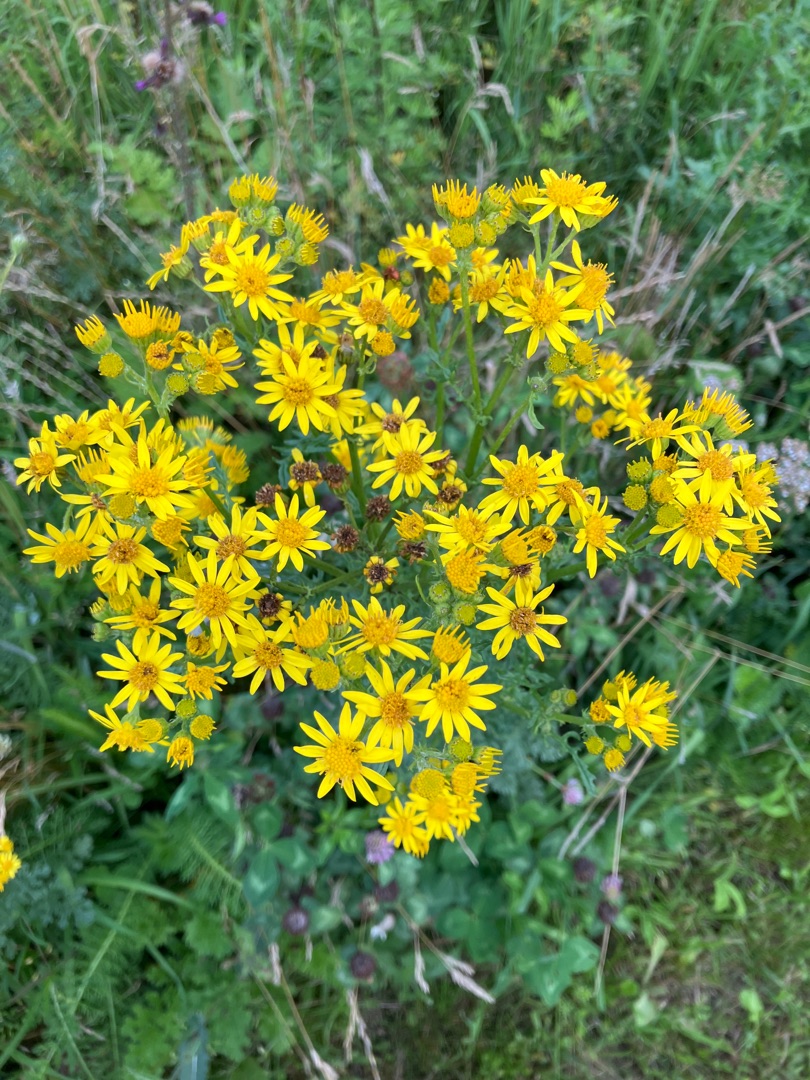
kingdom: Plantae
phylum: Tracheophyta
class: Magnoliopsida
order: Asterales
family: Asteraceae
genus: Jacobaea
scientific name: Jacobaea vulgaris
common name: Eng-brandbæger
